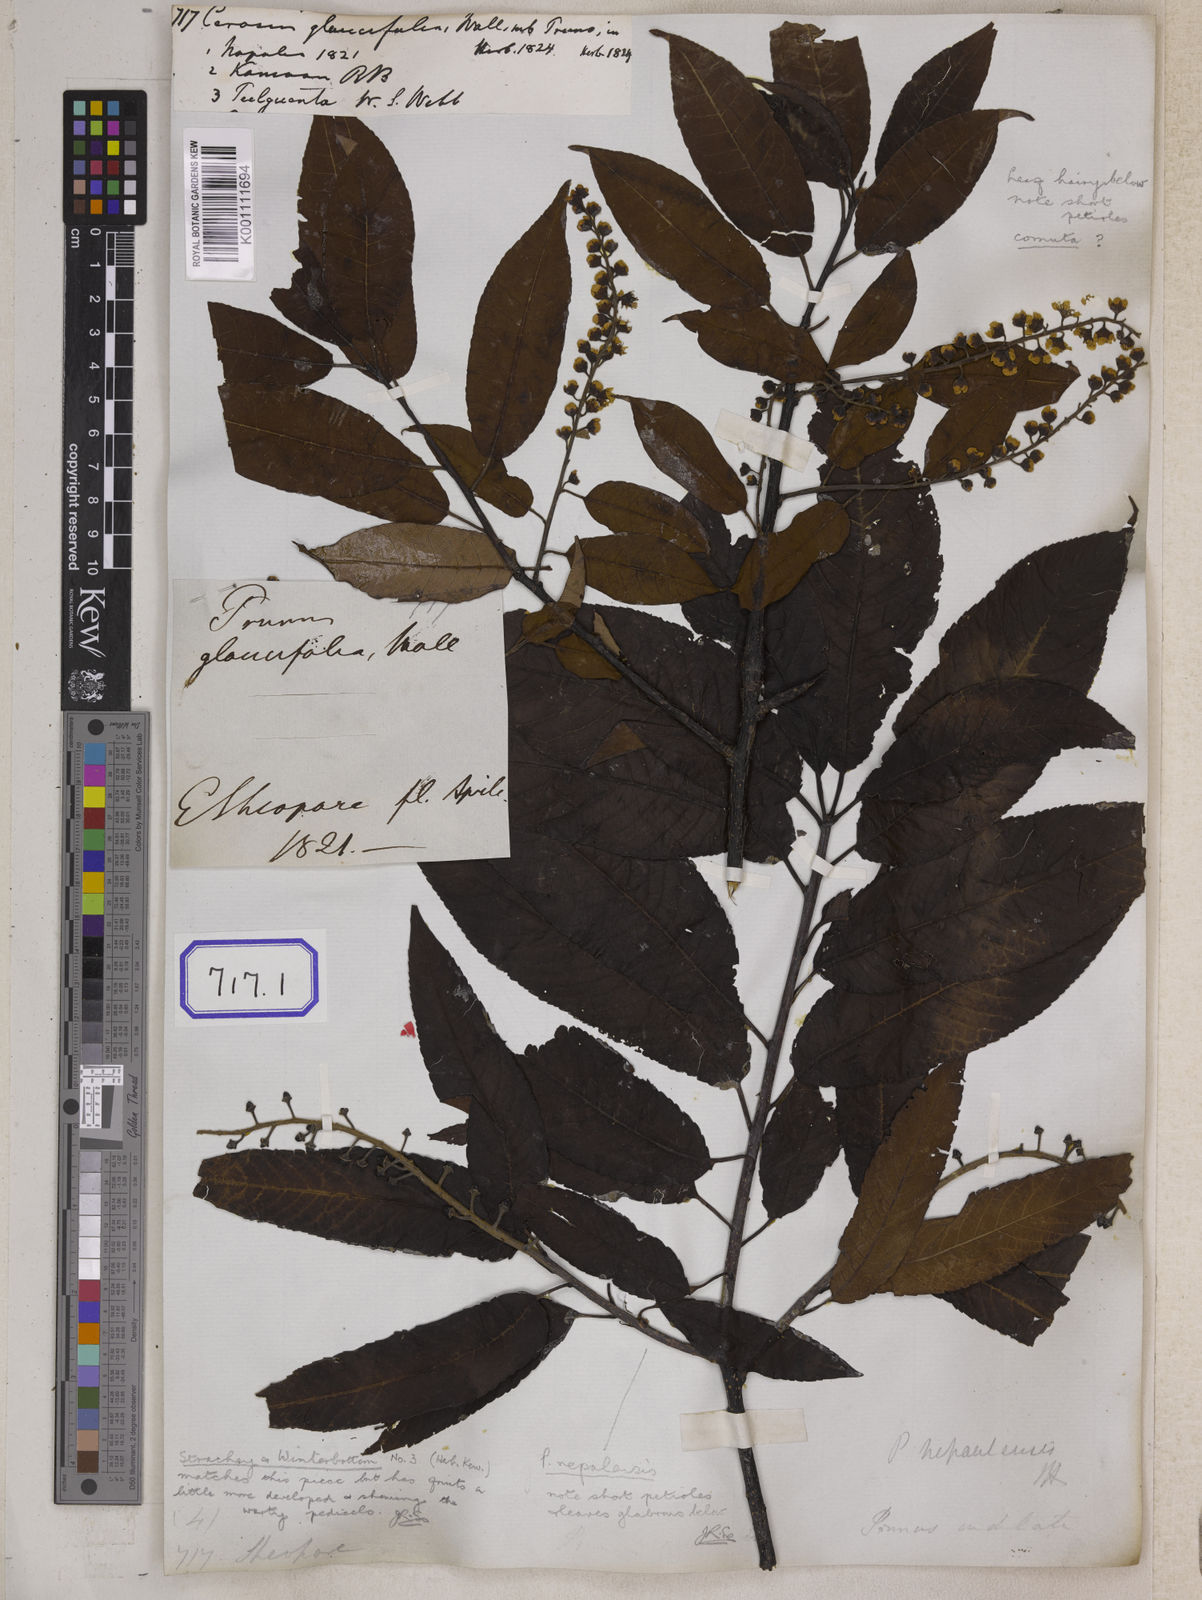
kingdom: Plantae
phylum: Tracheophyta
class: Magnoliopsida
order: Rosales
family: Rosaceae
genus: Prunus
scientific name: Prunus napaulensis
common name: Khasia cherry
